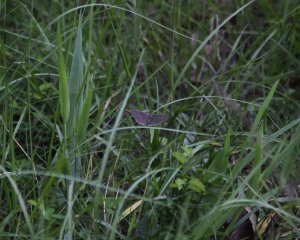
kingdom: Animalia
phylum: Arthropoda
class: Insecta
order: Lepidoptera
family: Nymphalidae
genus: Hermeuptychia
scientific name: Hermeuptychia hermes
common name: Carolina Satyr
